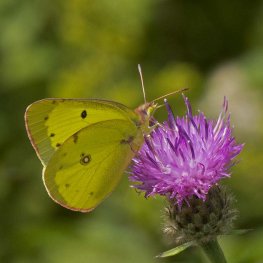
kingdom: Animalia
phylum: Arthropoda
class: Insecta
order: Lepidoptera
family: Pieridae
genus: Colias
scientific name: Colias philodice
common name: Clouded Sulphur
